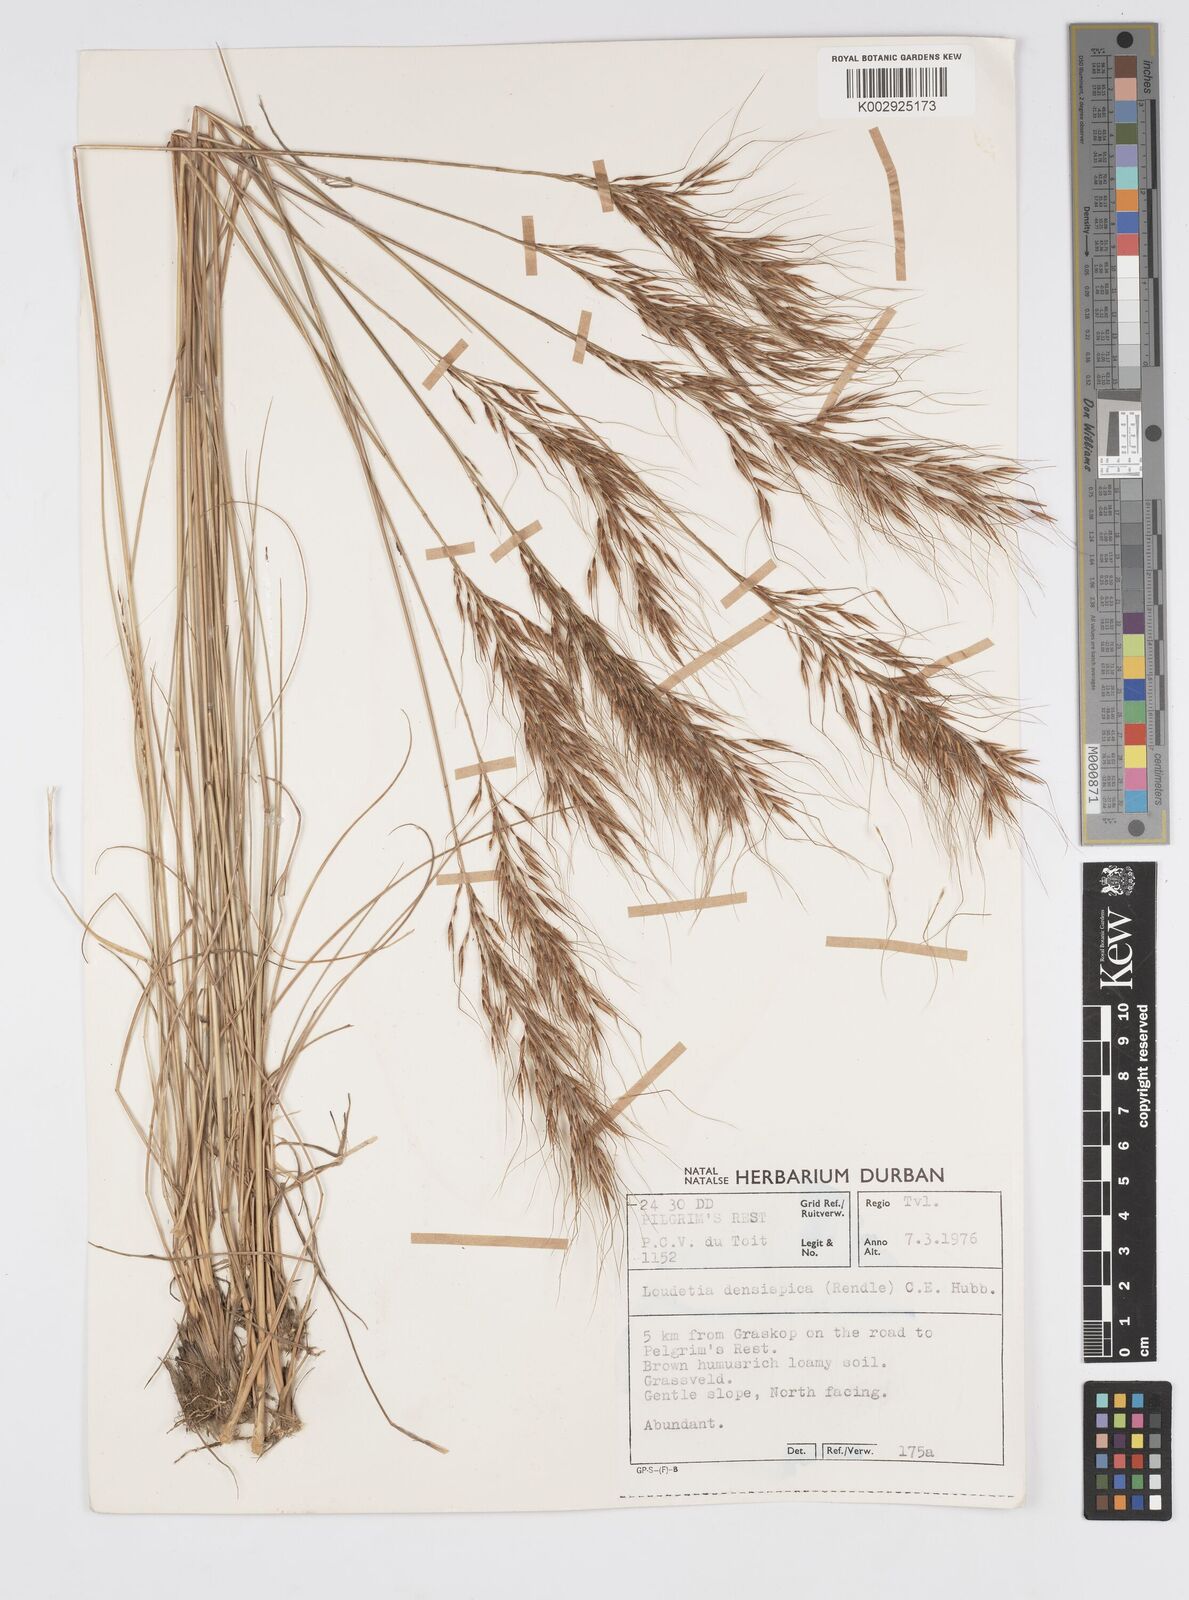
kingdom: Plantae
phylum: Tracheophyta
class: Liliopsida
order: Poales
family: Poaceae
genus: Loudetia
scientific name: Loudetia simplex
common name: Common russet grass
